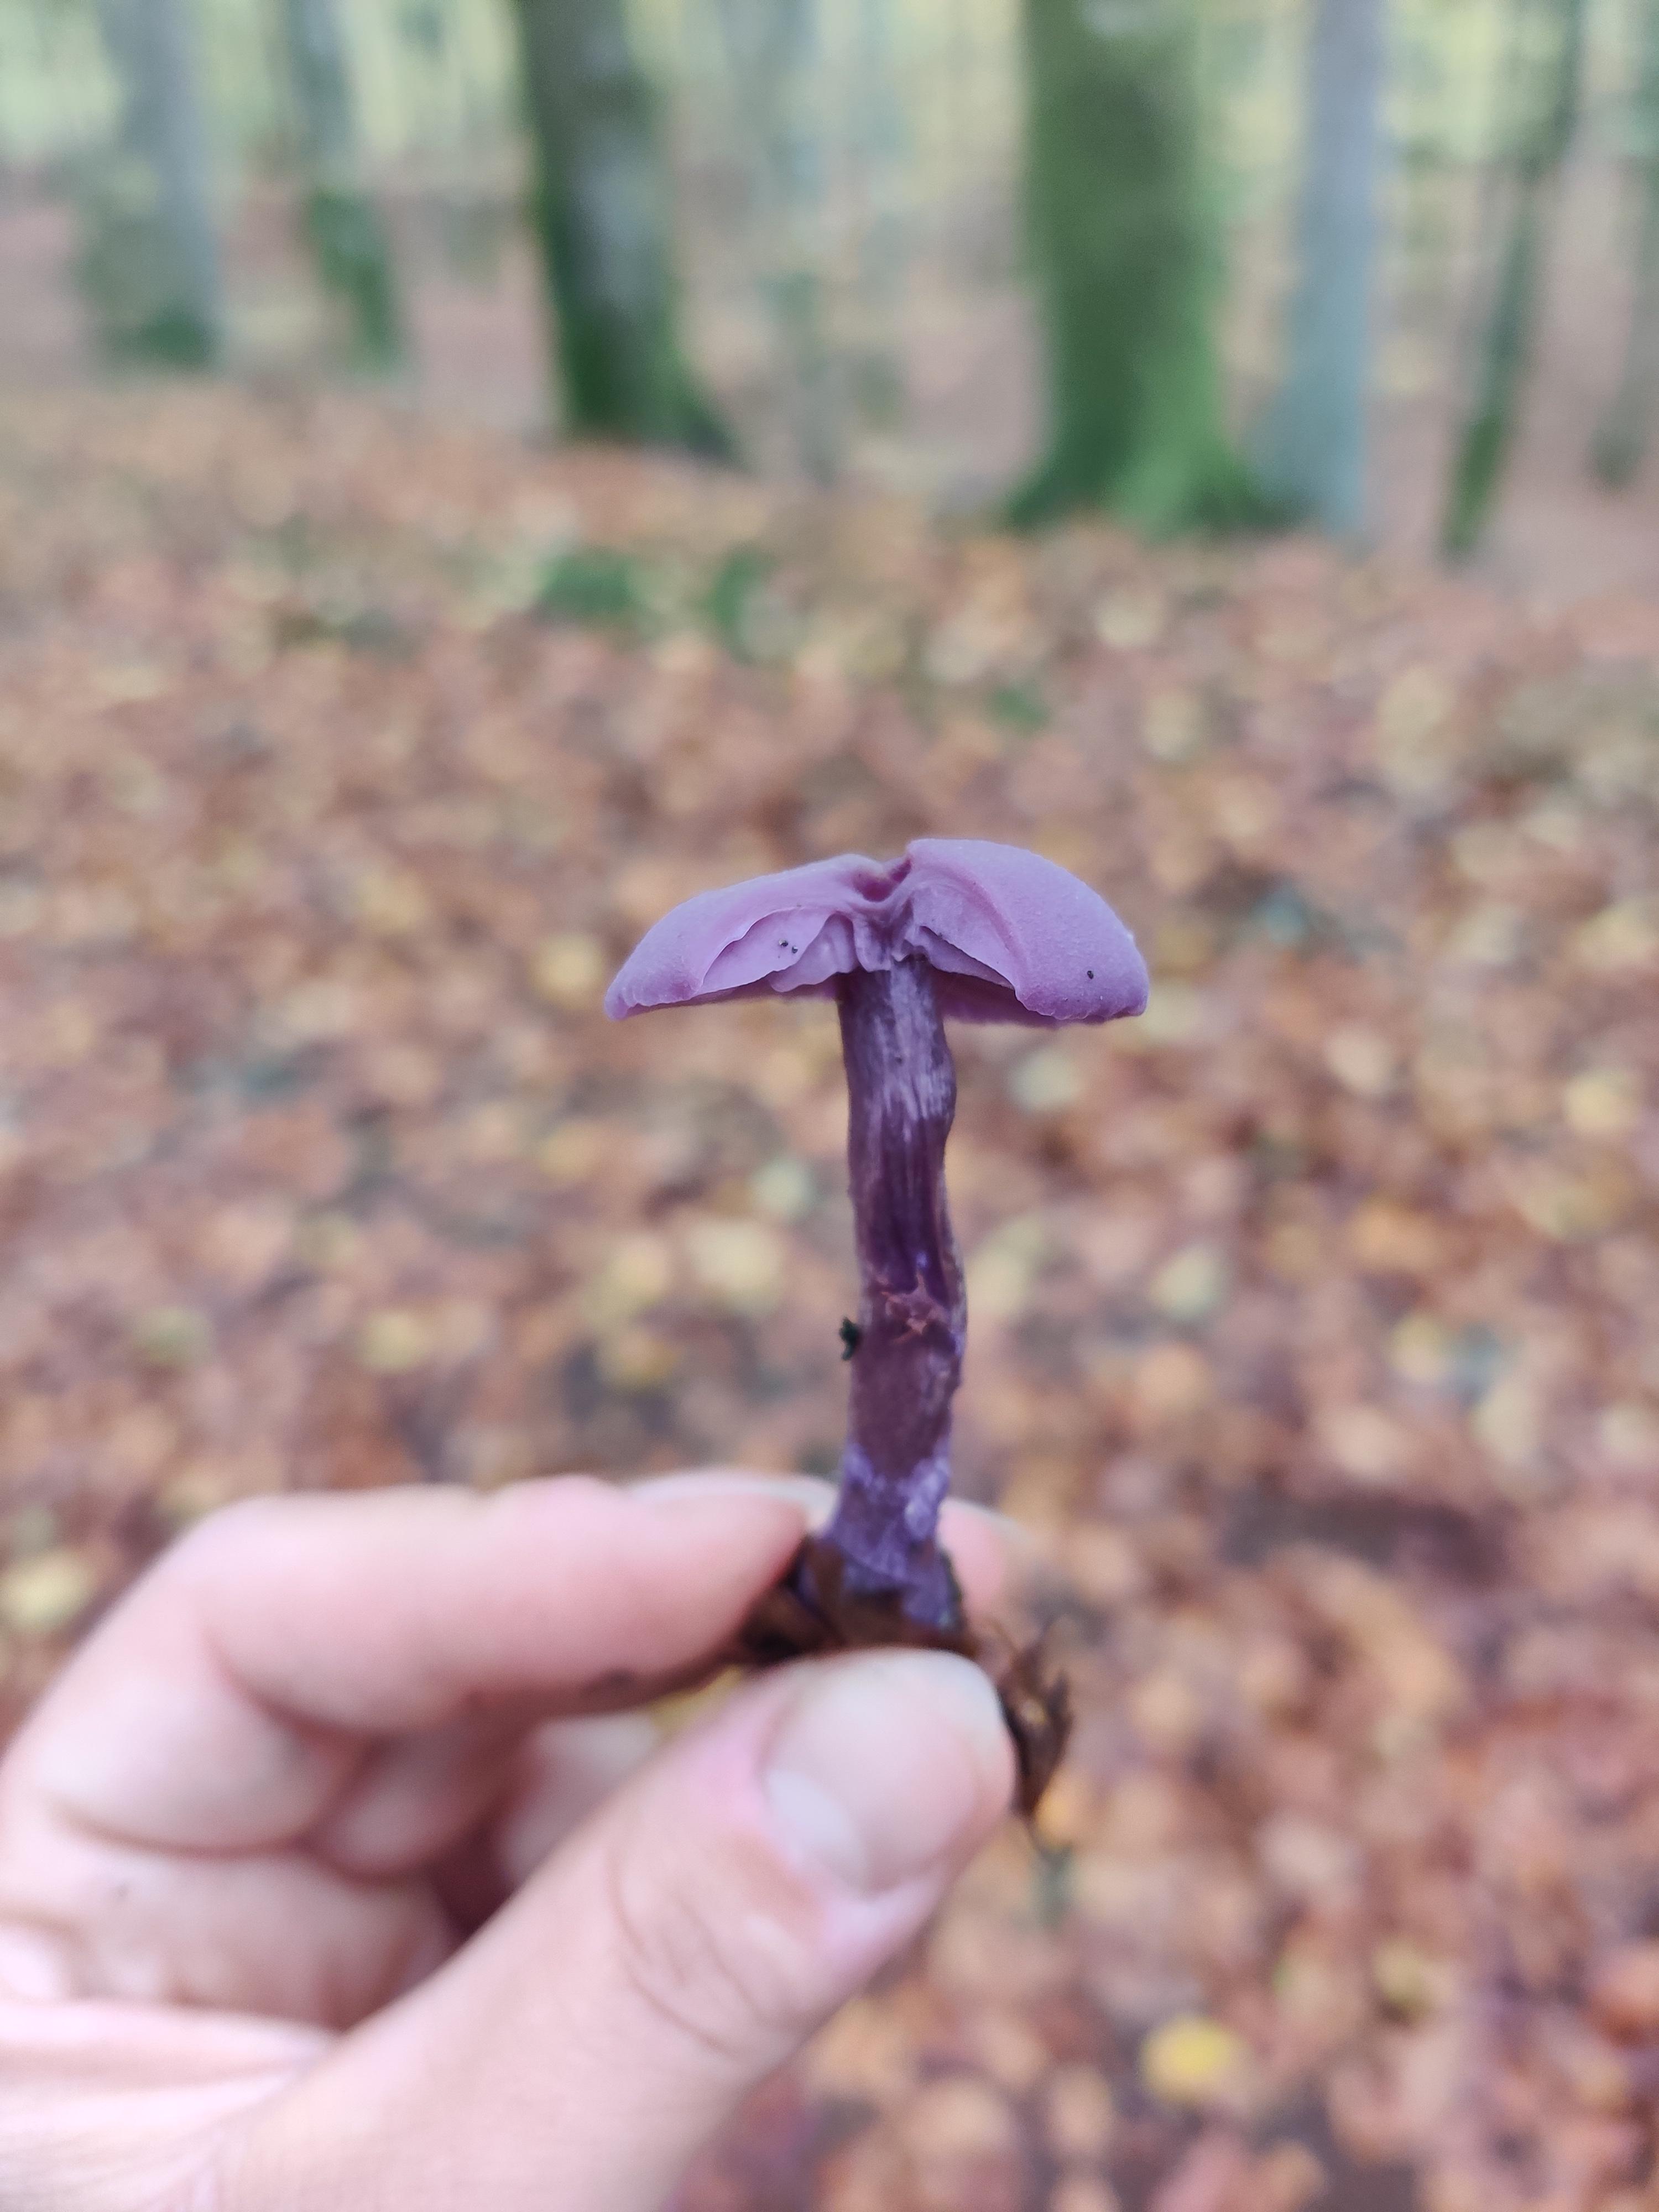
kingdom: Fungi
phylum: Basidiomycota
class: Agaricomycetes
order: Agaricales
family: Hydnangiaceae
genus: Laccaria
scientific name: Laccaria amethystina
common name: violet ametysthat
